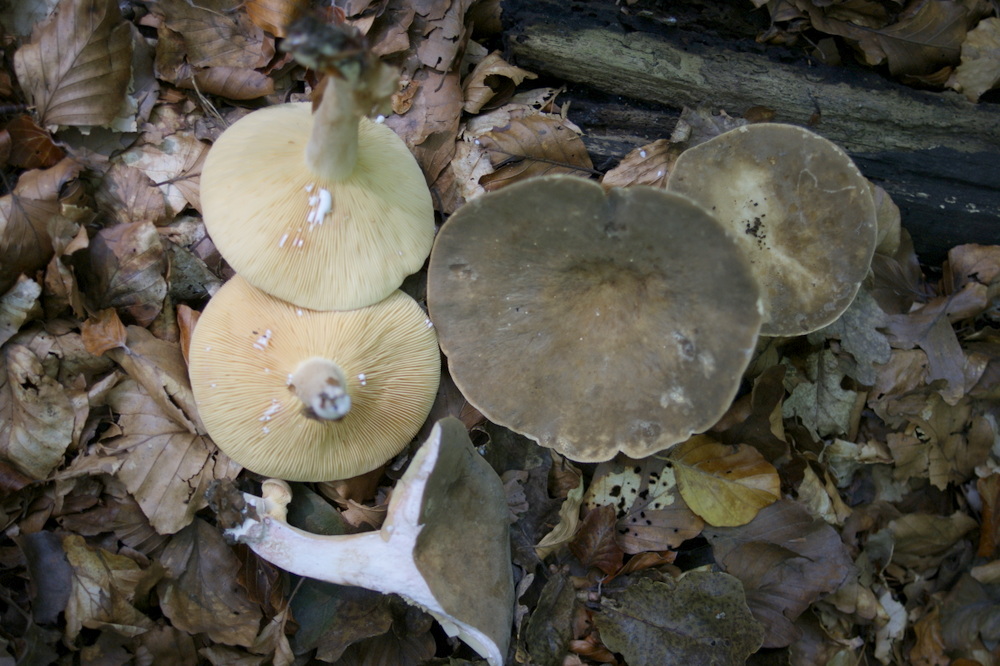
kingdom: Fungi
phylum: Basidiomycota
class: Agaricomycetes
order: Russulales
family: Russulaceae
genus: Lactarius
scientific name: Lactarius pterosporus
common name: vingesporet mælkehat
